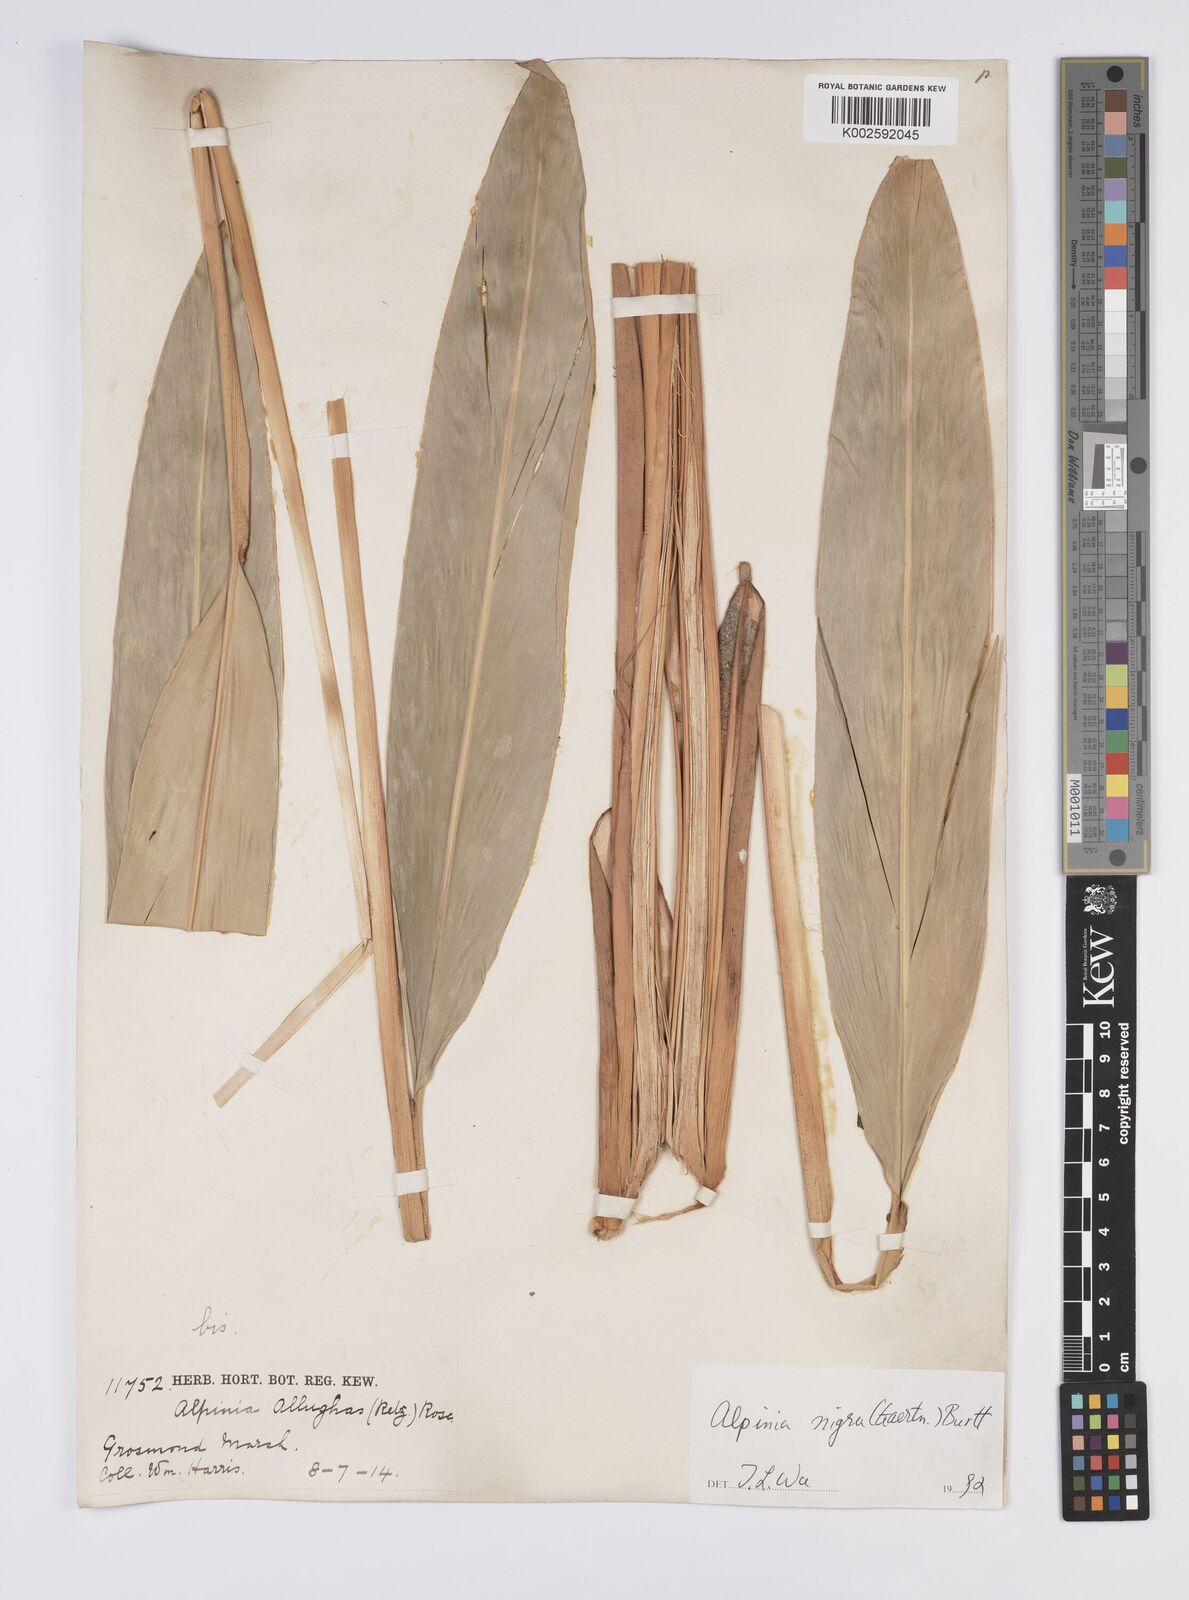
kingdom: Plantae
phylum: Tracheophyta
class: Liliopsida
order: Zingiberales
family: Zingiberaceae
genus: Alpinia
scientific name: Alpinia nigra
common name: Black fruited galanga
